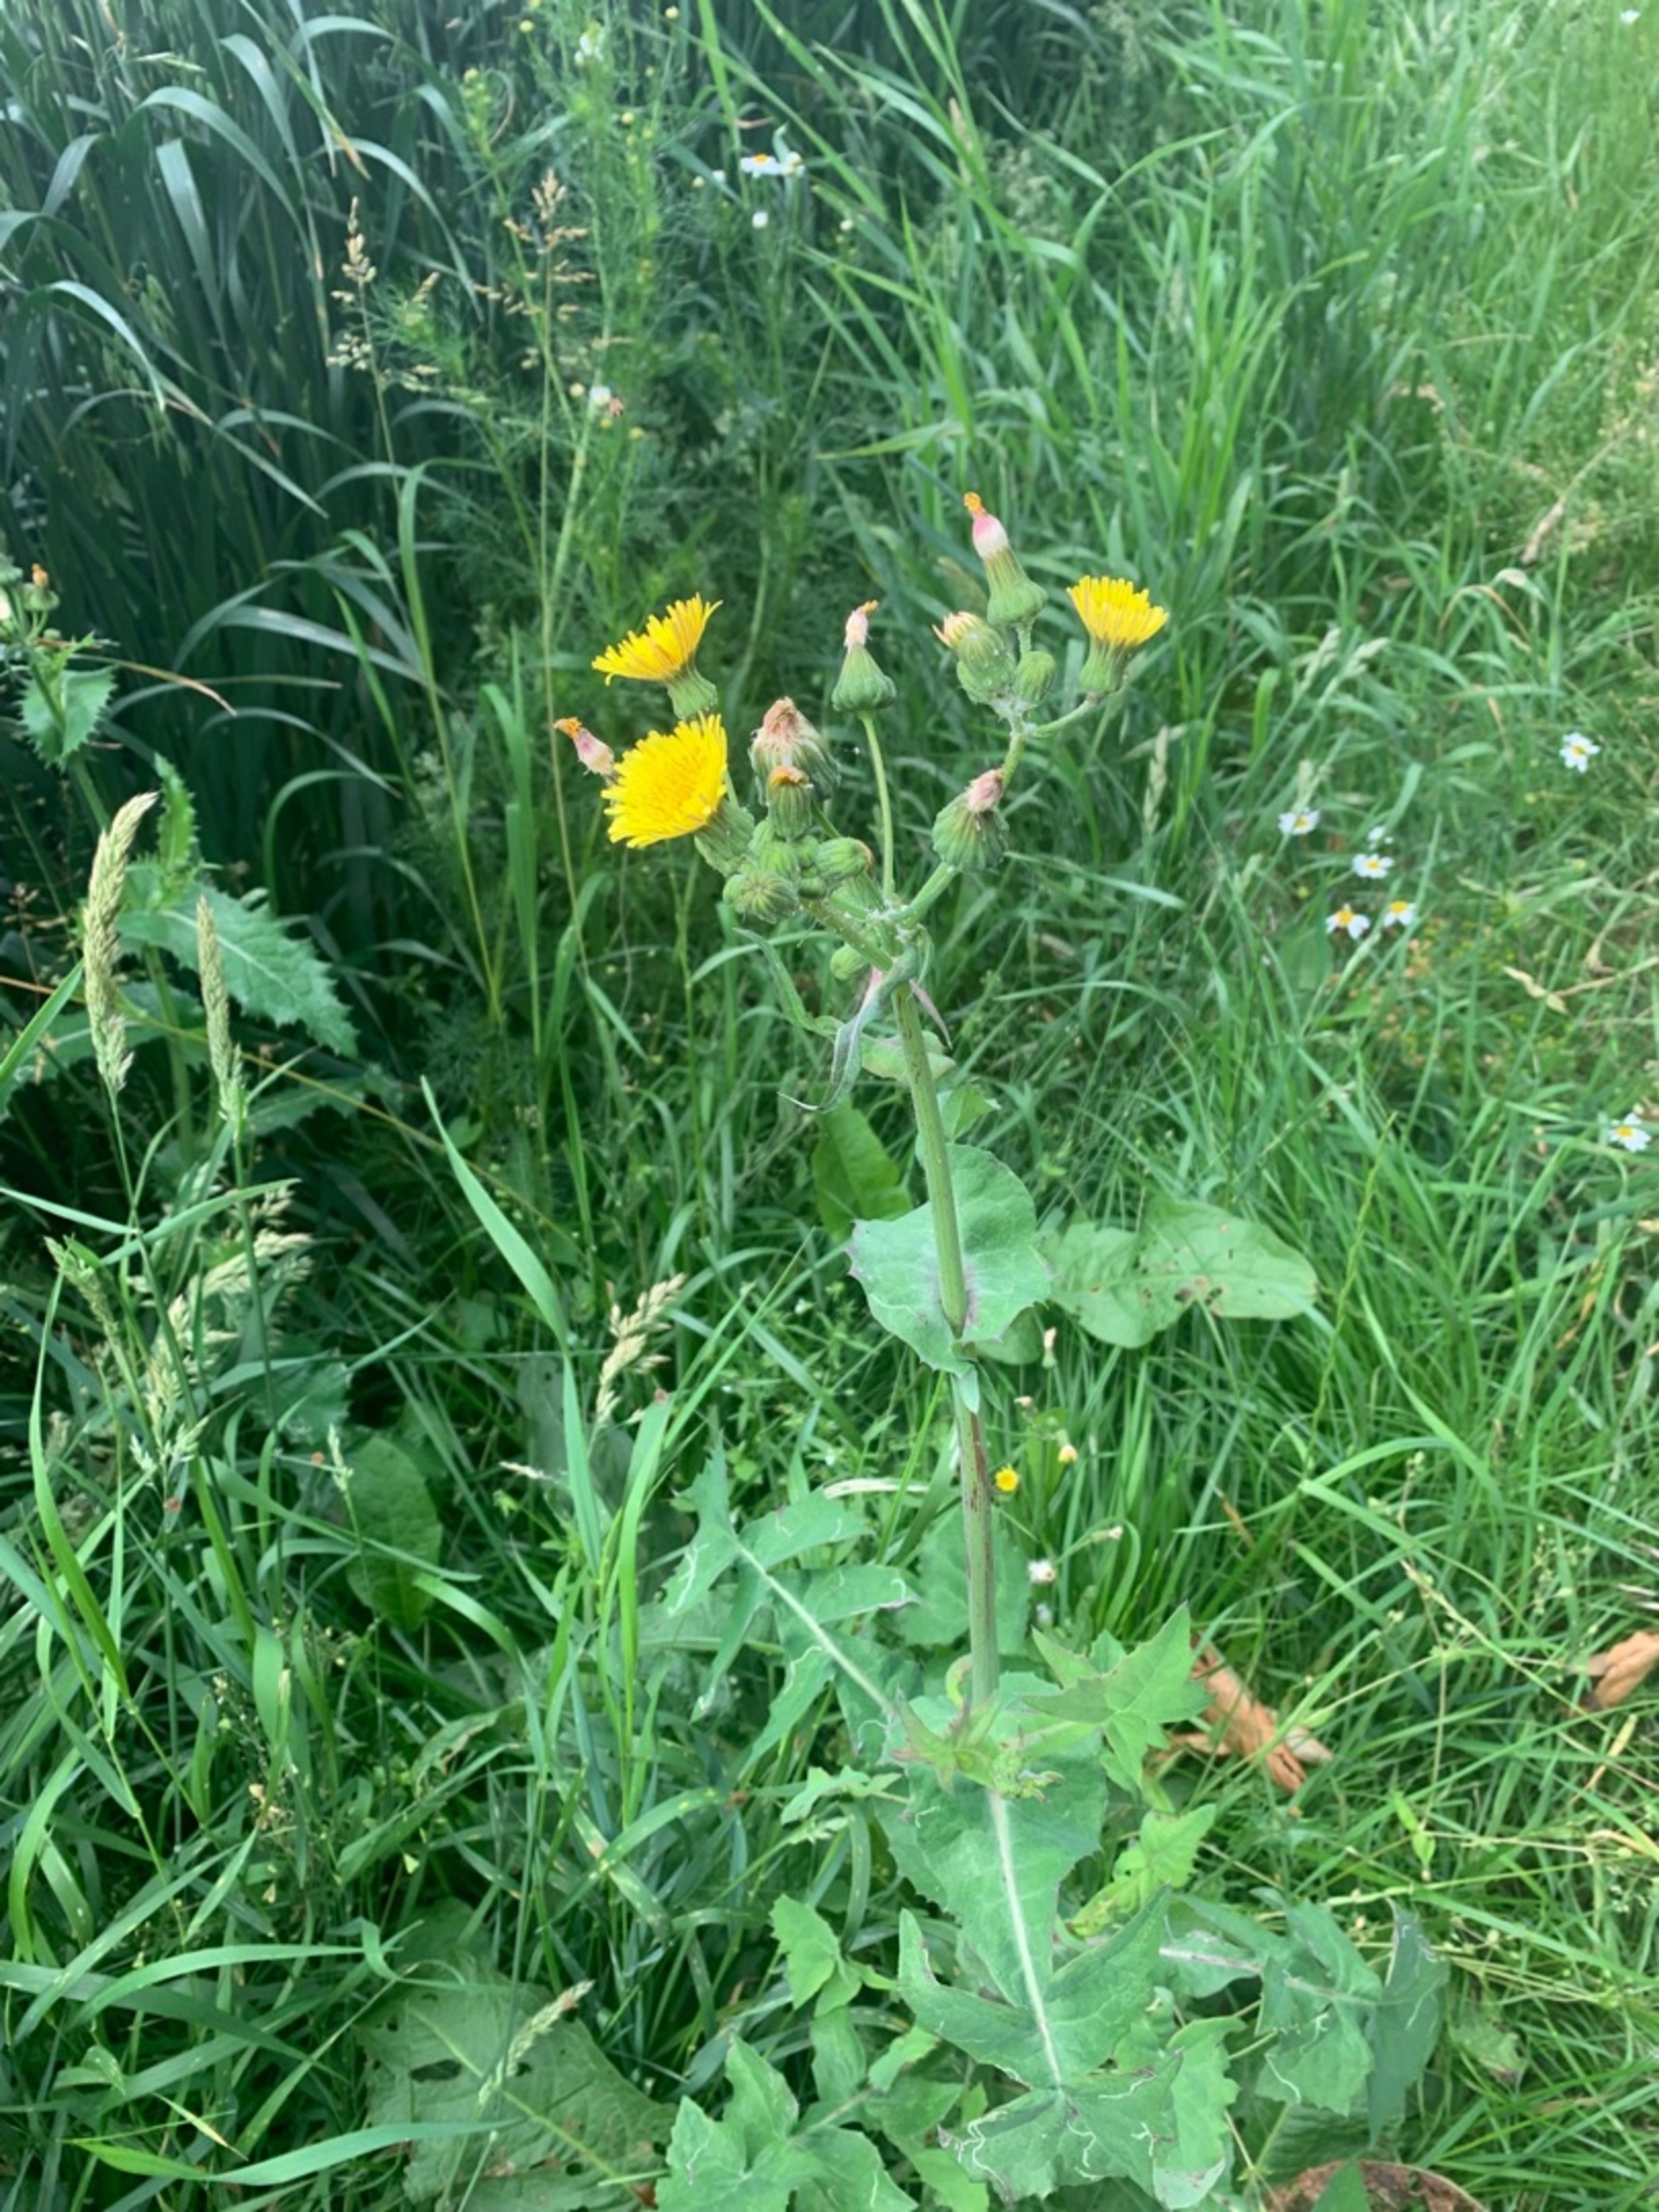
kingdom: Plantae
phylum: Tracheophyta
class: Magnoliopsida
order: Asterales
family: Asteraceae
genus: Sonchus
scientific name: Sonchus oleraceus
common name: Almindelig svinemælk
